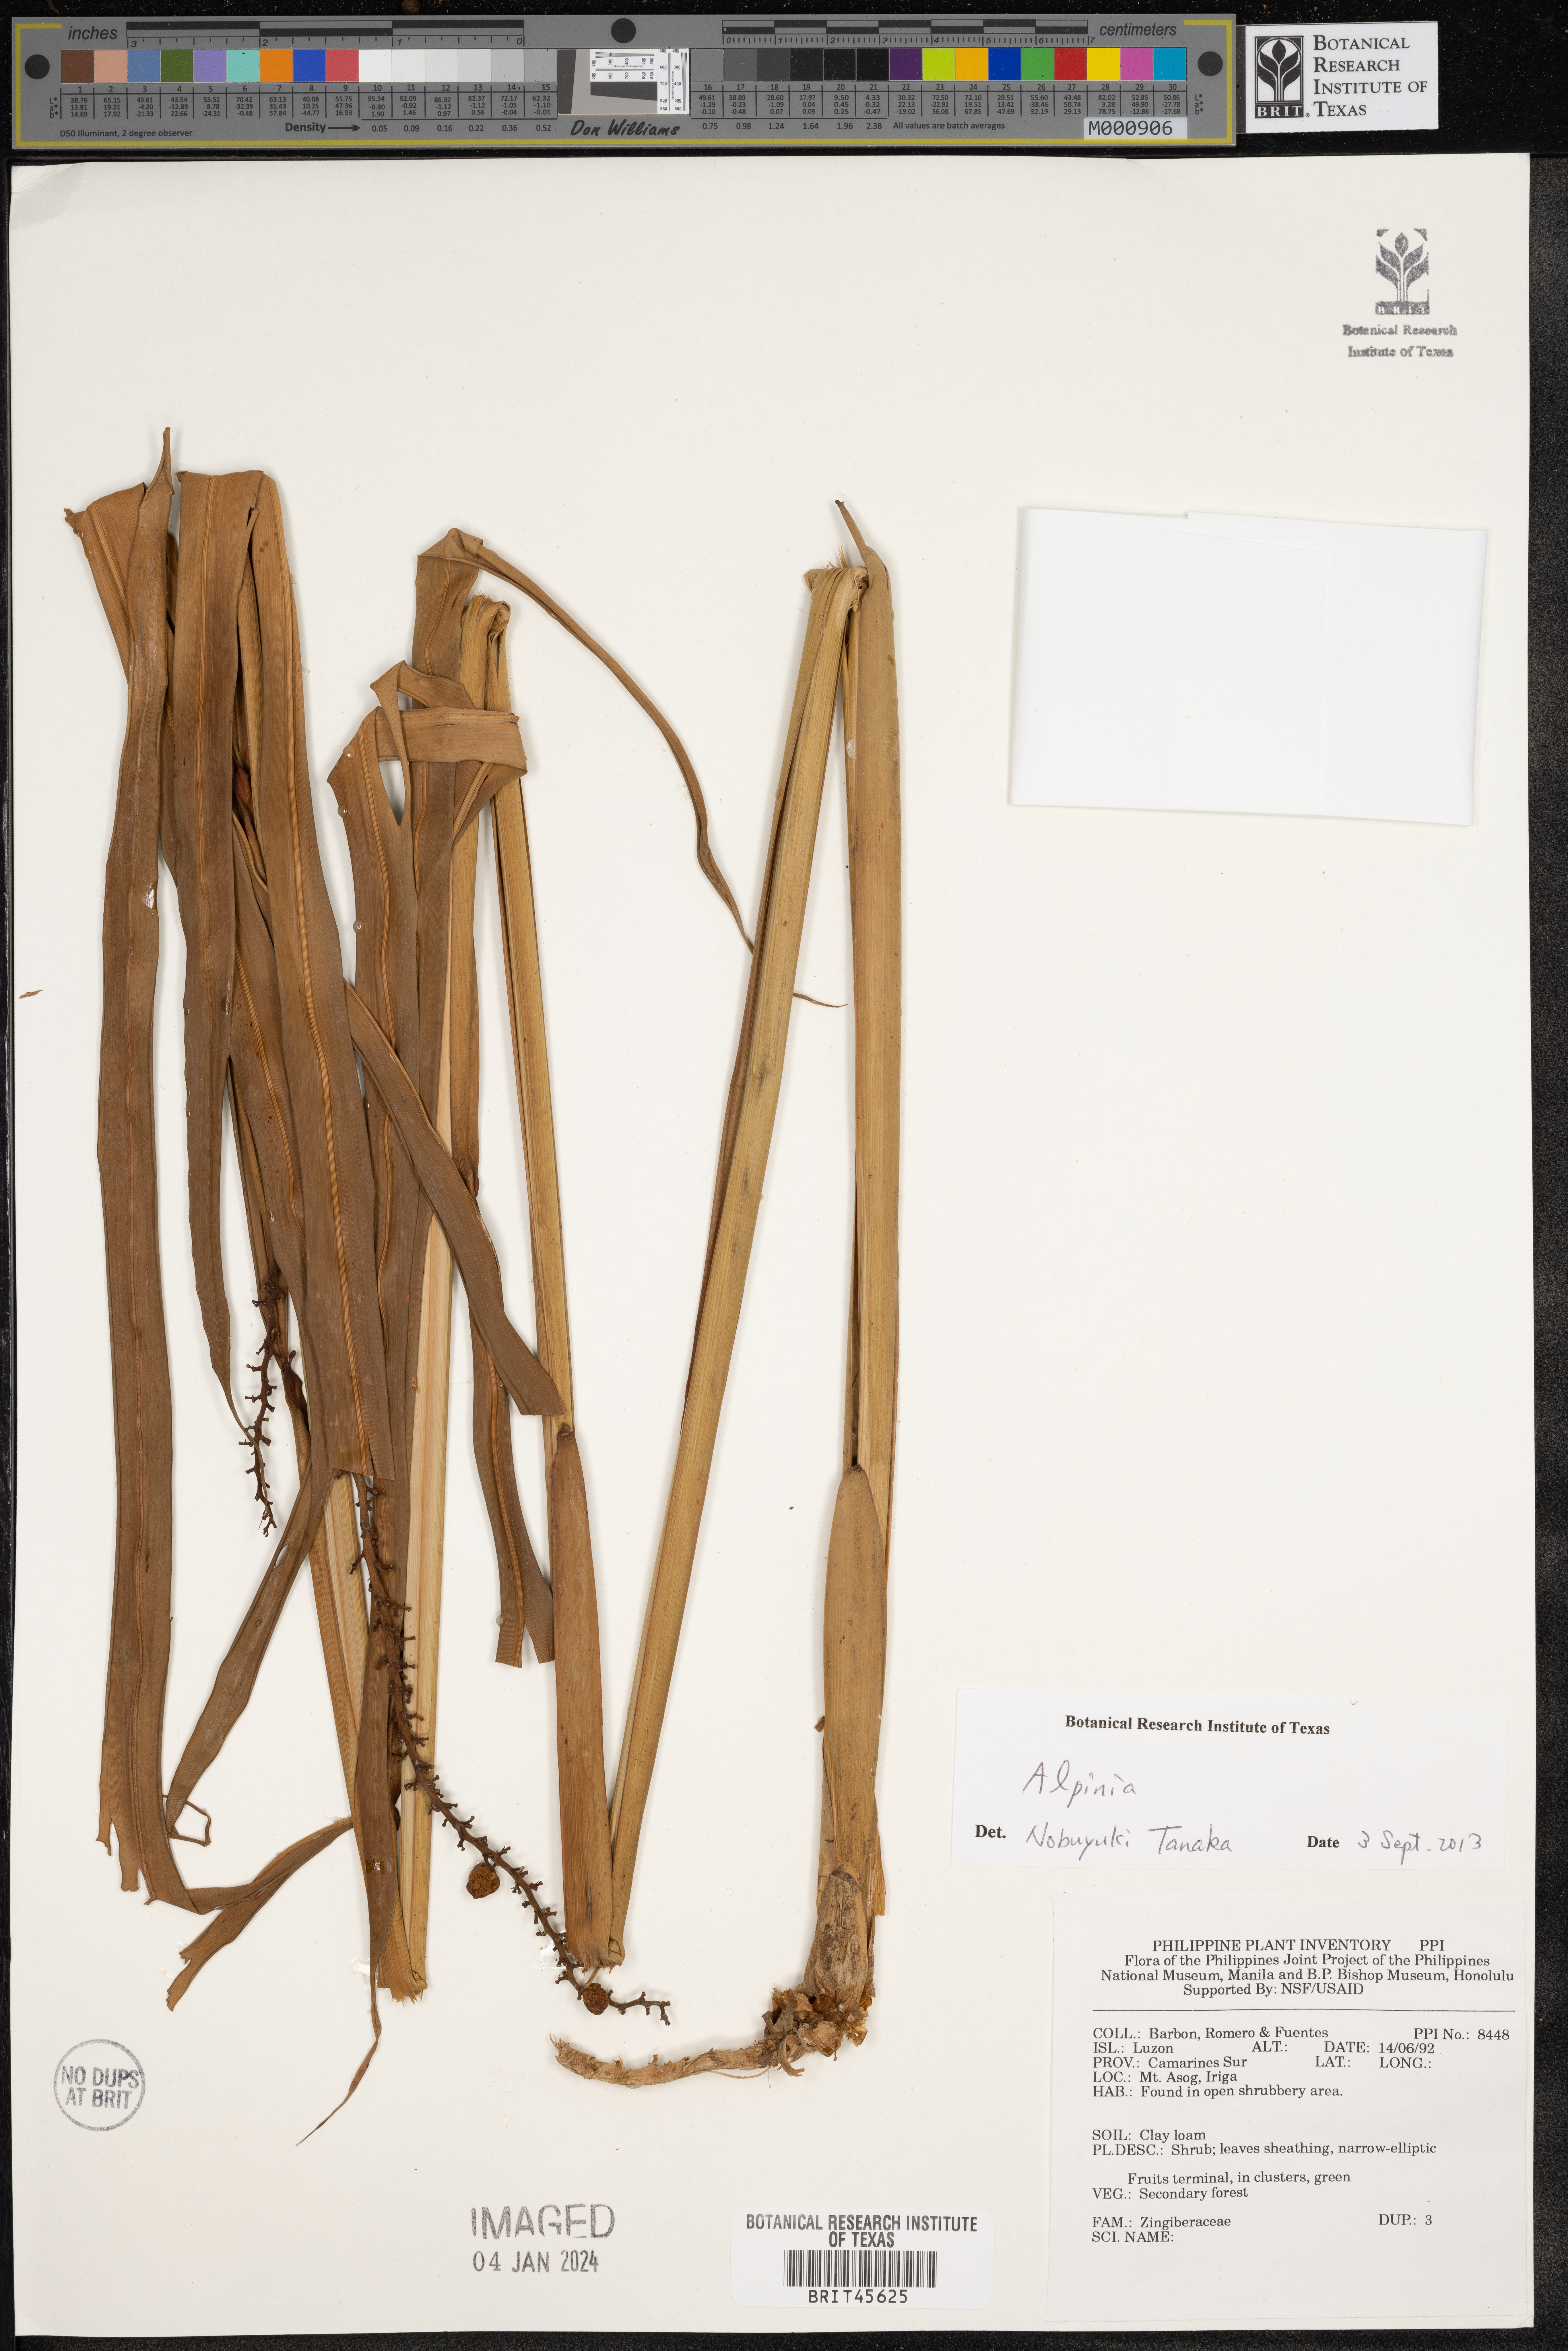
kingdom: Plantae
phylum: Tracheophyta
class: Liliopsida
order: Zingiberales
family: Zingiberaceae
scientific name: Zingiberaceae
